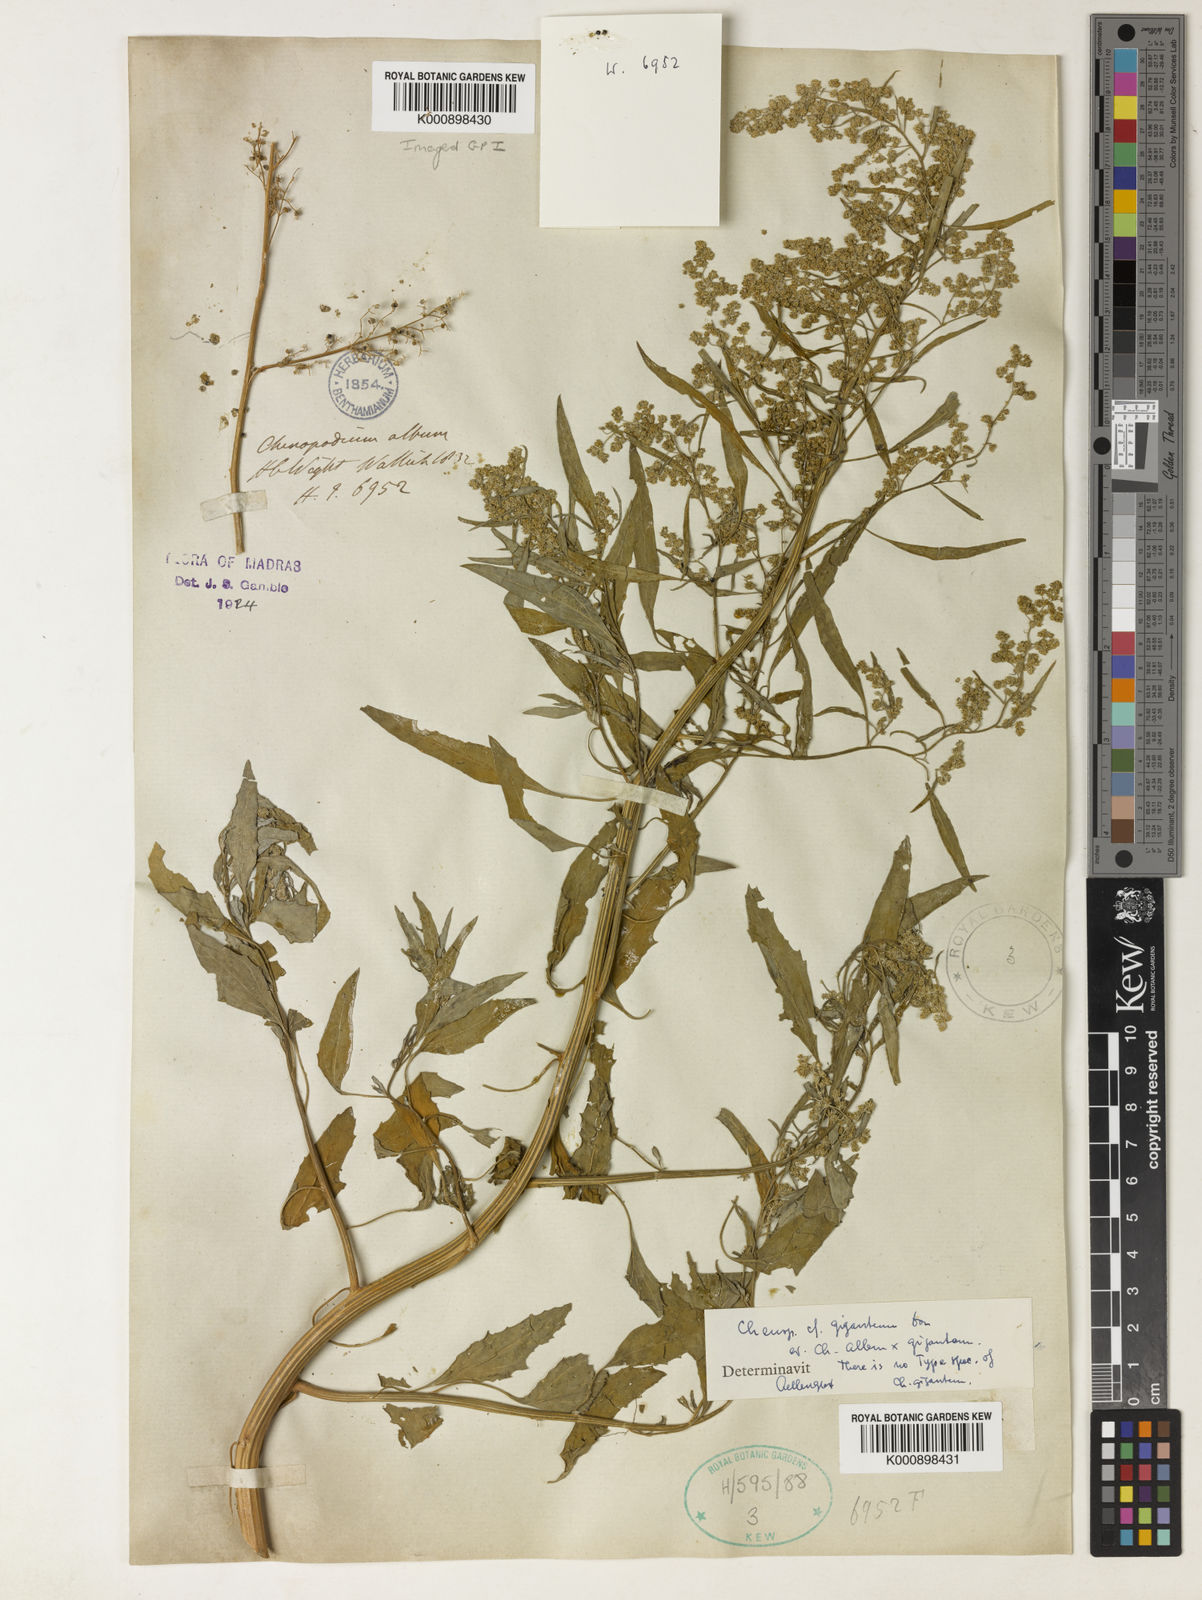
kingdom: Plantae
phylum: Tracheophyta
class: Magnoliopsida
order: Caryophyllales
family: Amaranthaceae
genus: Chenopodium
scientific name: Chenopodium giganteum
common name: Magentaspreen
